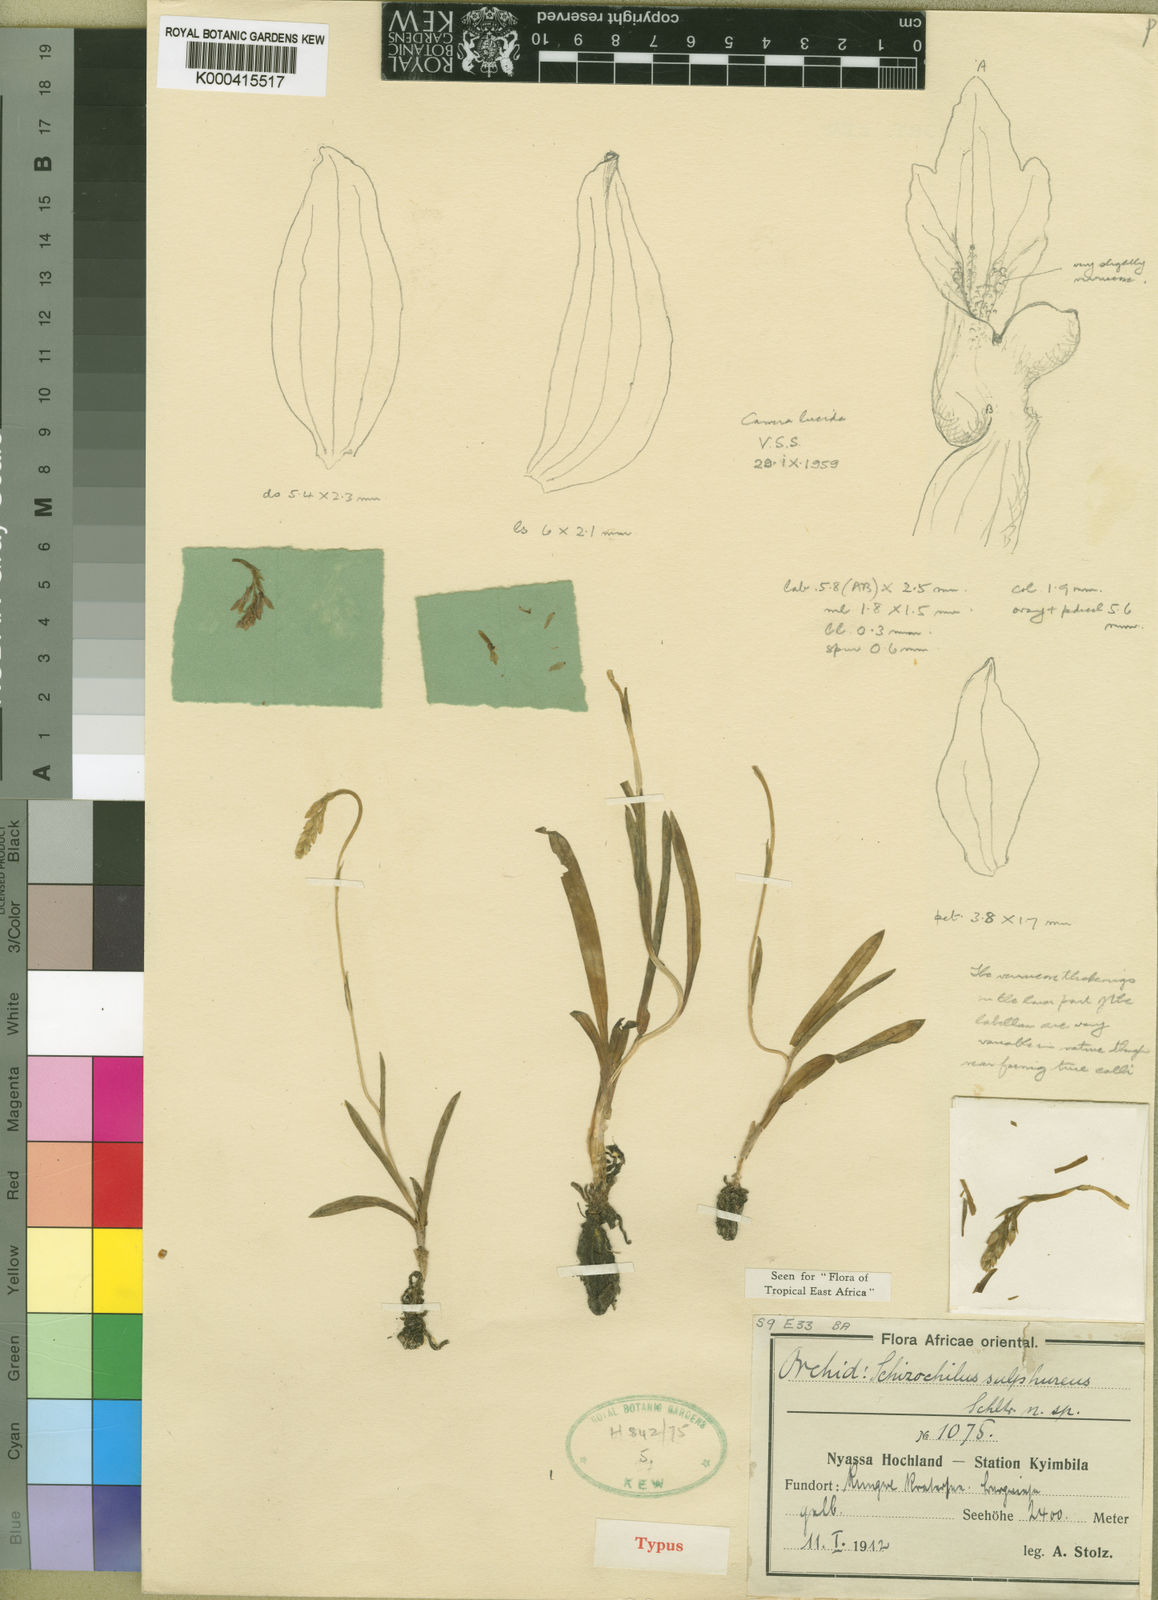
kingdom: Plantae
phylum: Tracheophyta
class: Liliopsida
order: Asparagales
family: Orchidaceae
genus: Schizochilus
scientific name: Schizochilus sulphureus
